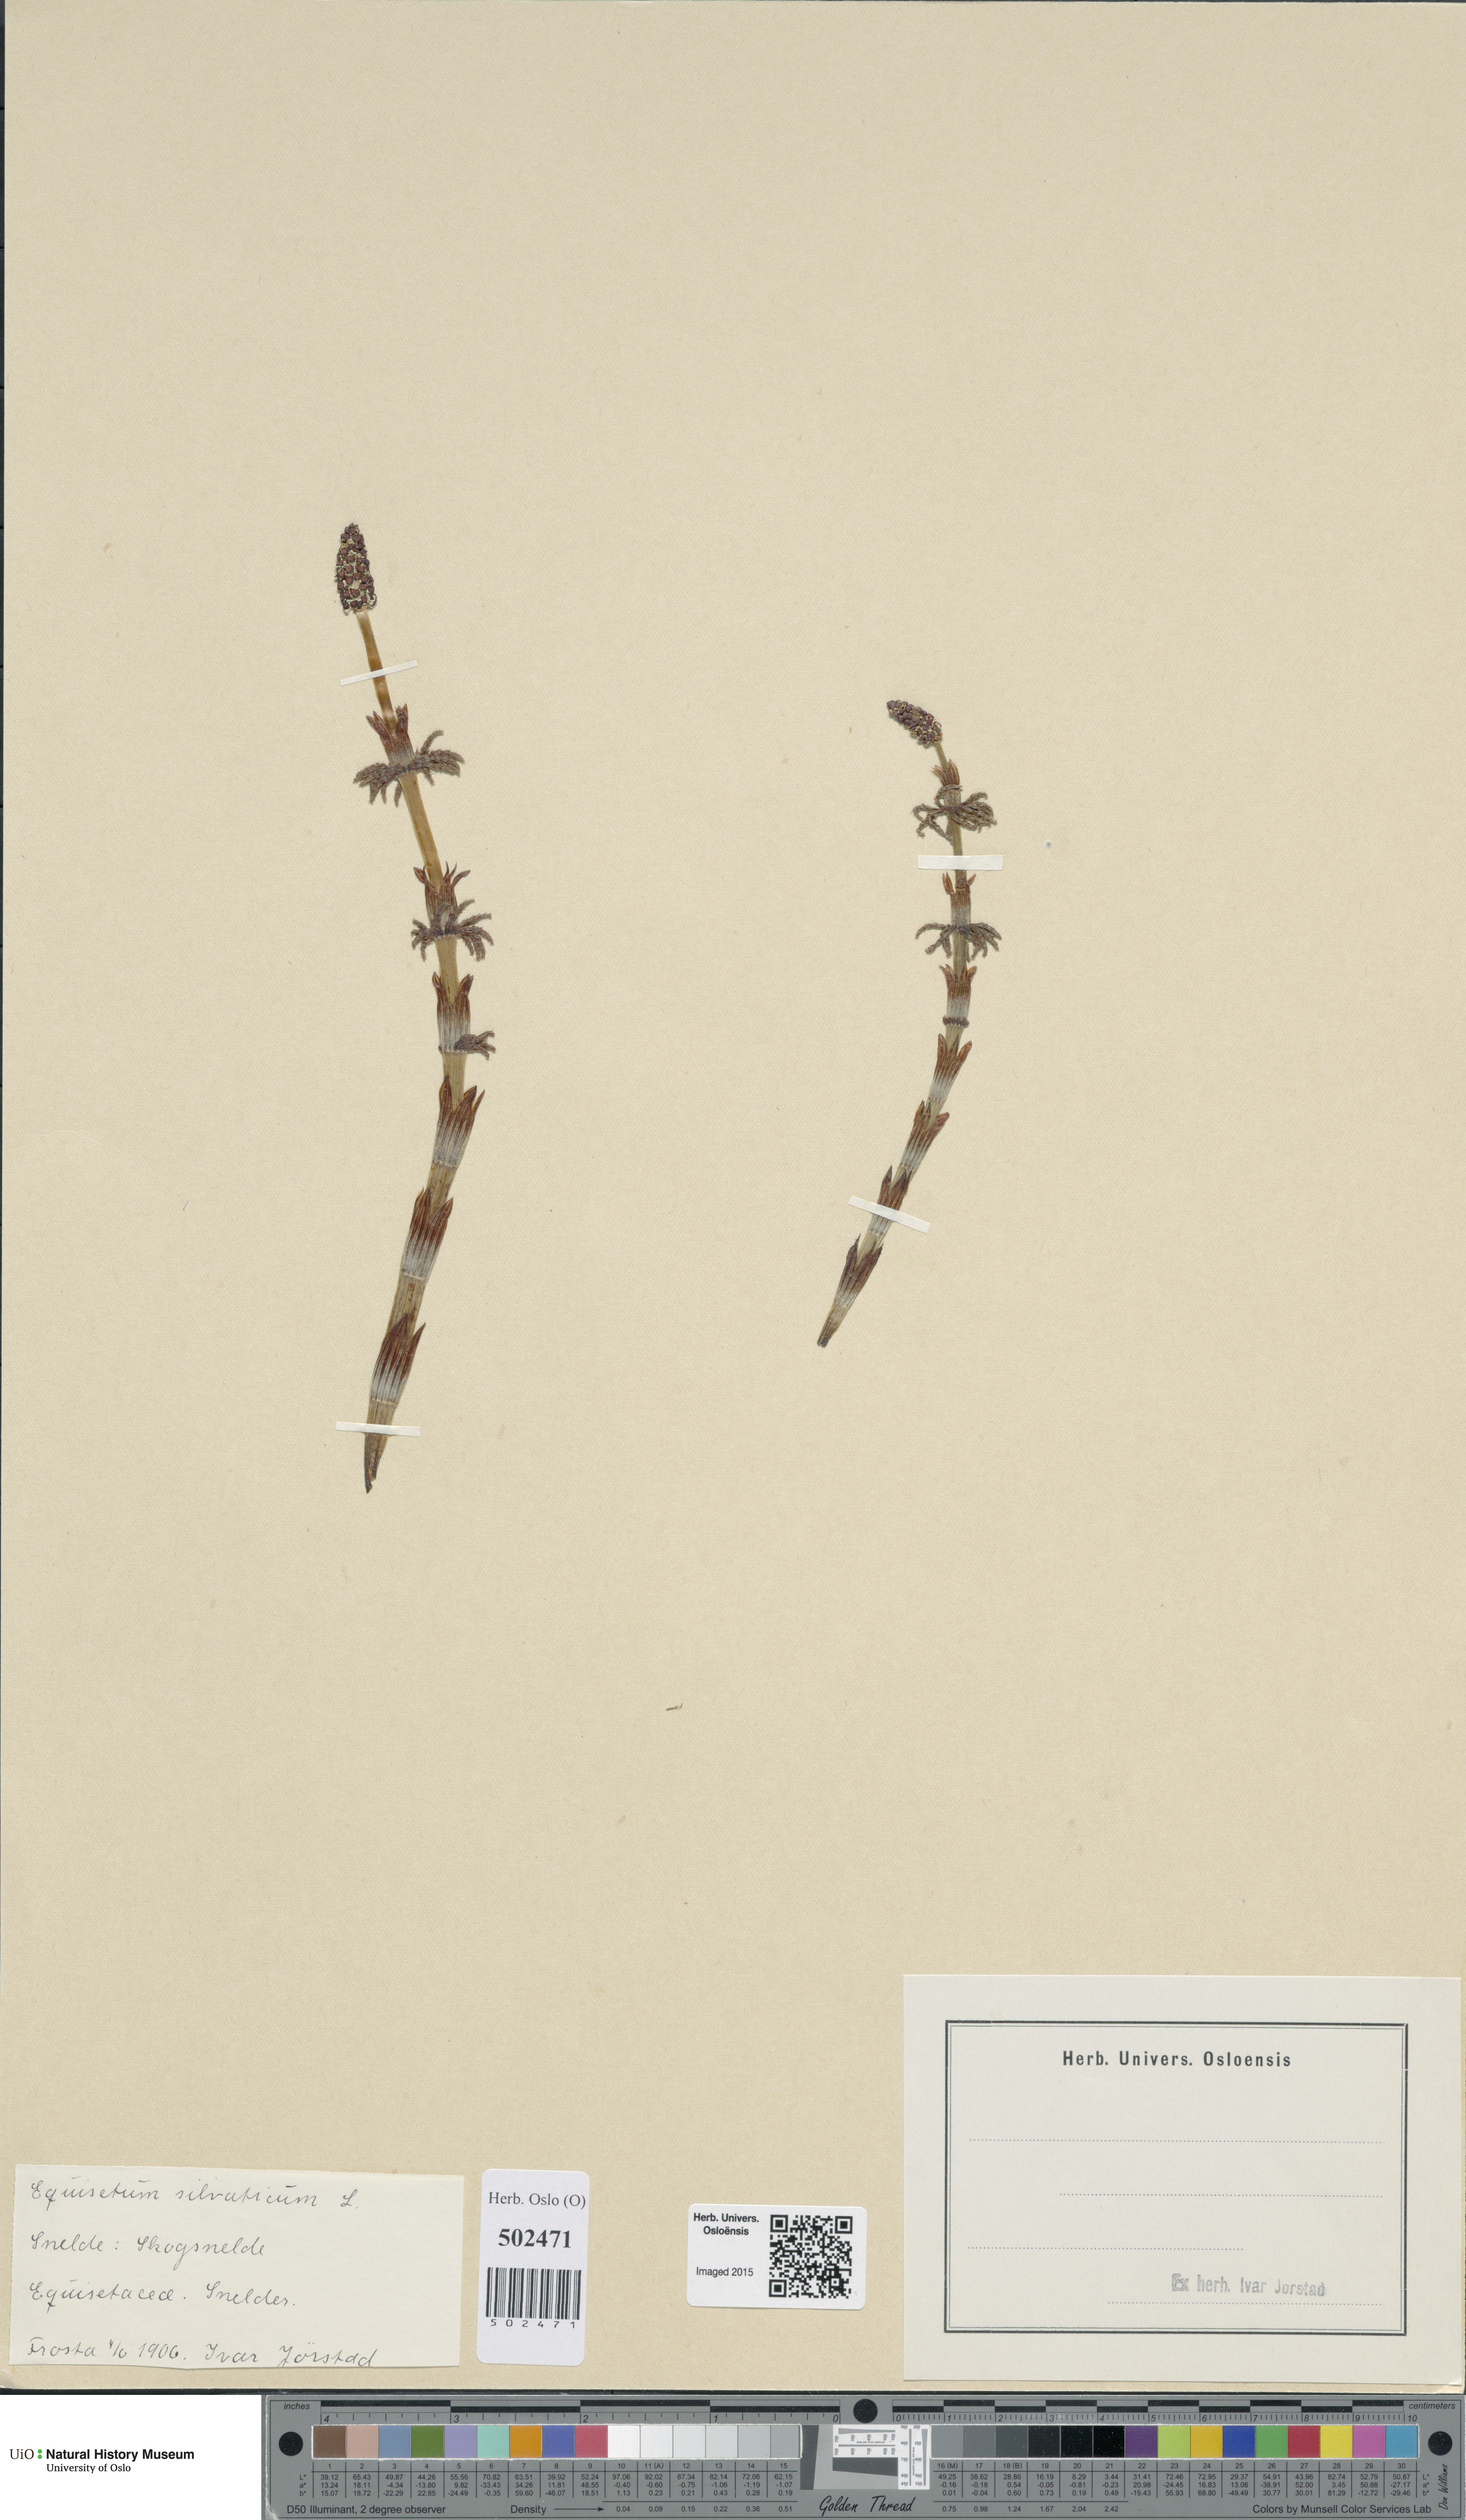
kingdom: Plantae
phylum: Tracheophyta
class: Polypodiopsida
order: Equisetales
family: Equisetaceae
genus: Equisetum
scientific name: Equisetum sylvaticum
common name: Wood horsetail
